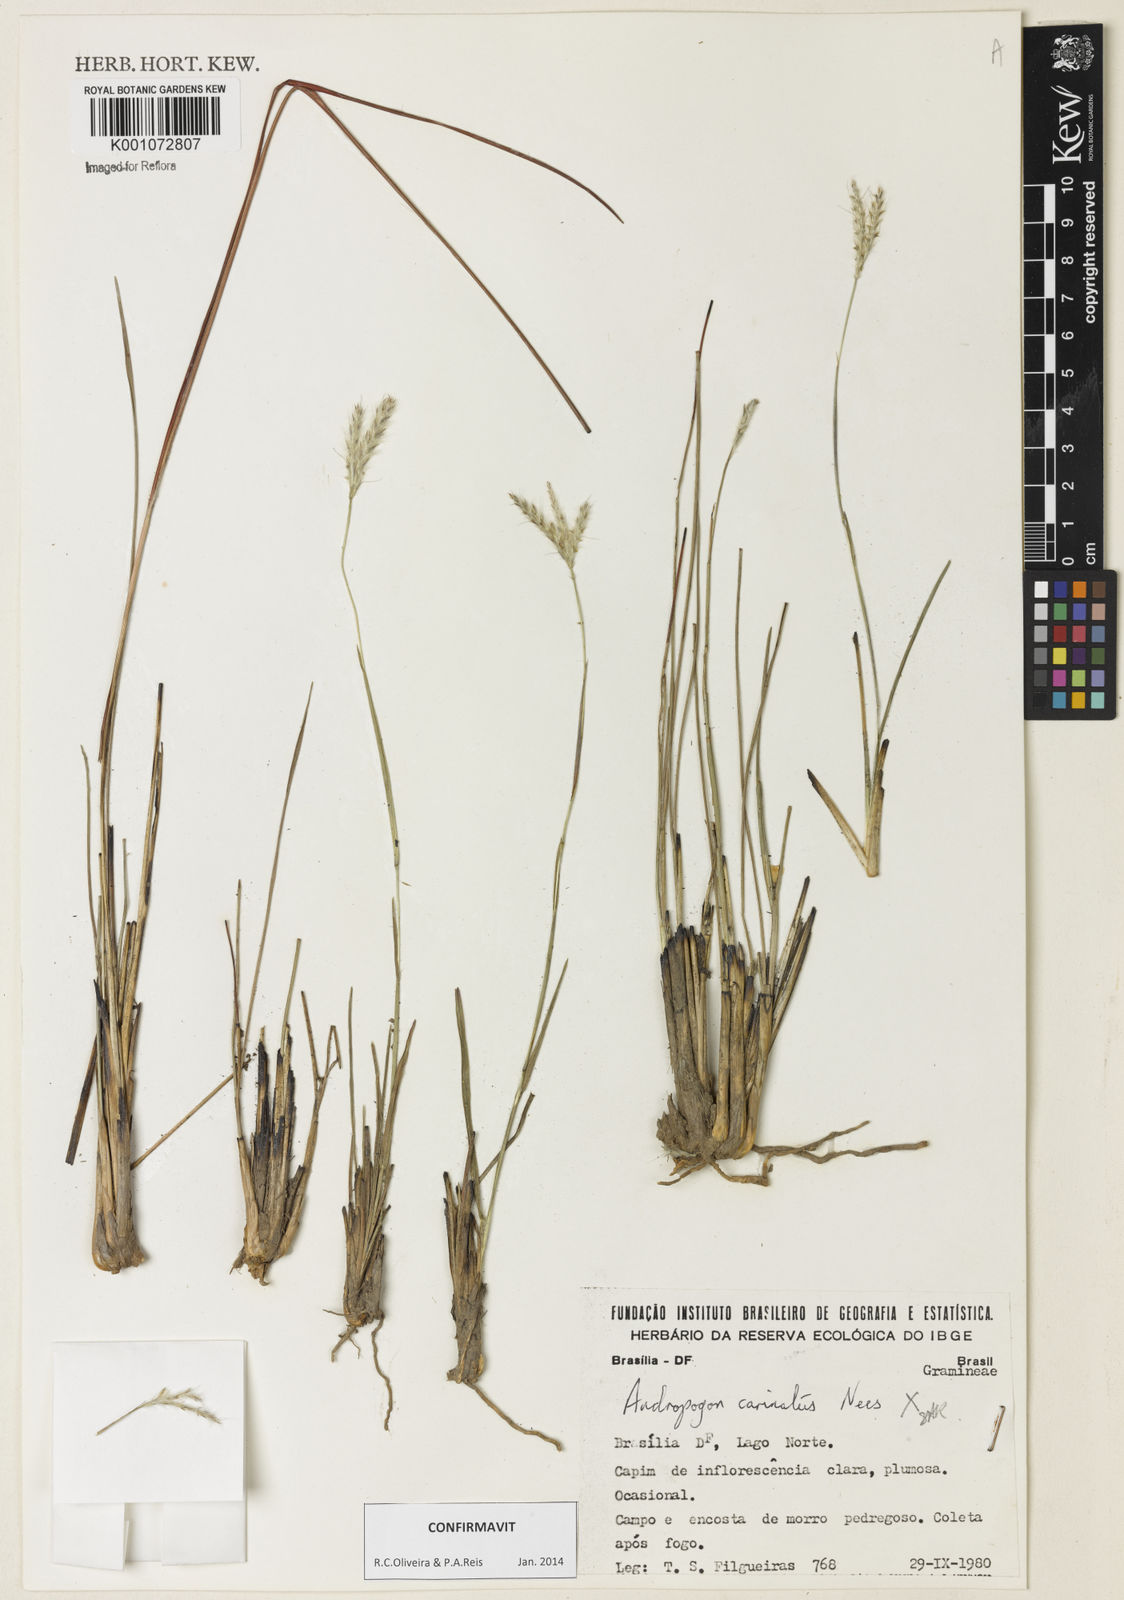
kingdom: Plantae
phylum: Tracheophyta
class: Liliopsida
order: Poales
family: Poaceae
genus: Andropogon
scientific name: Andropogon carinatus
